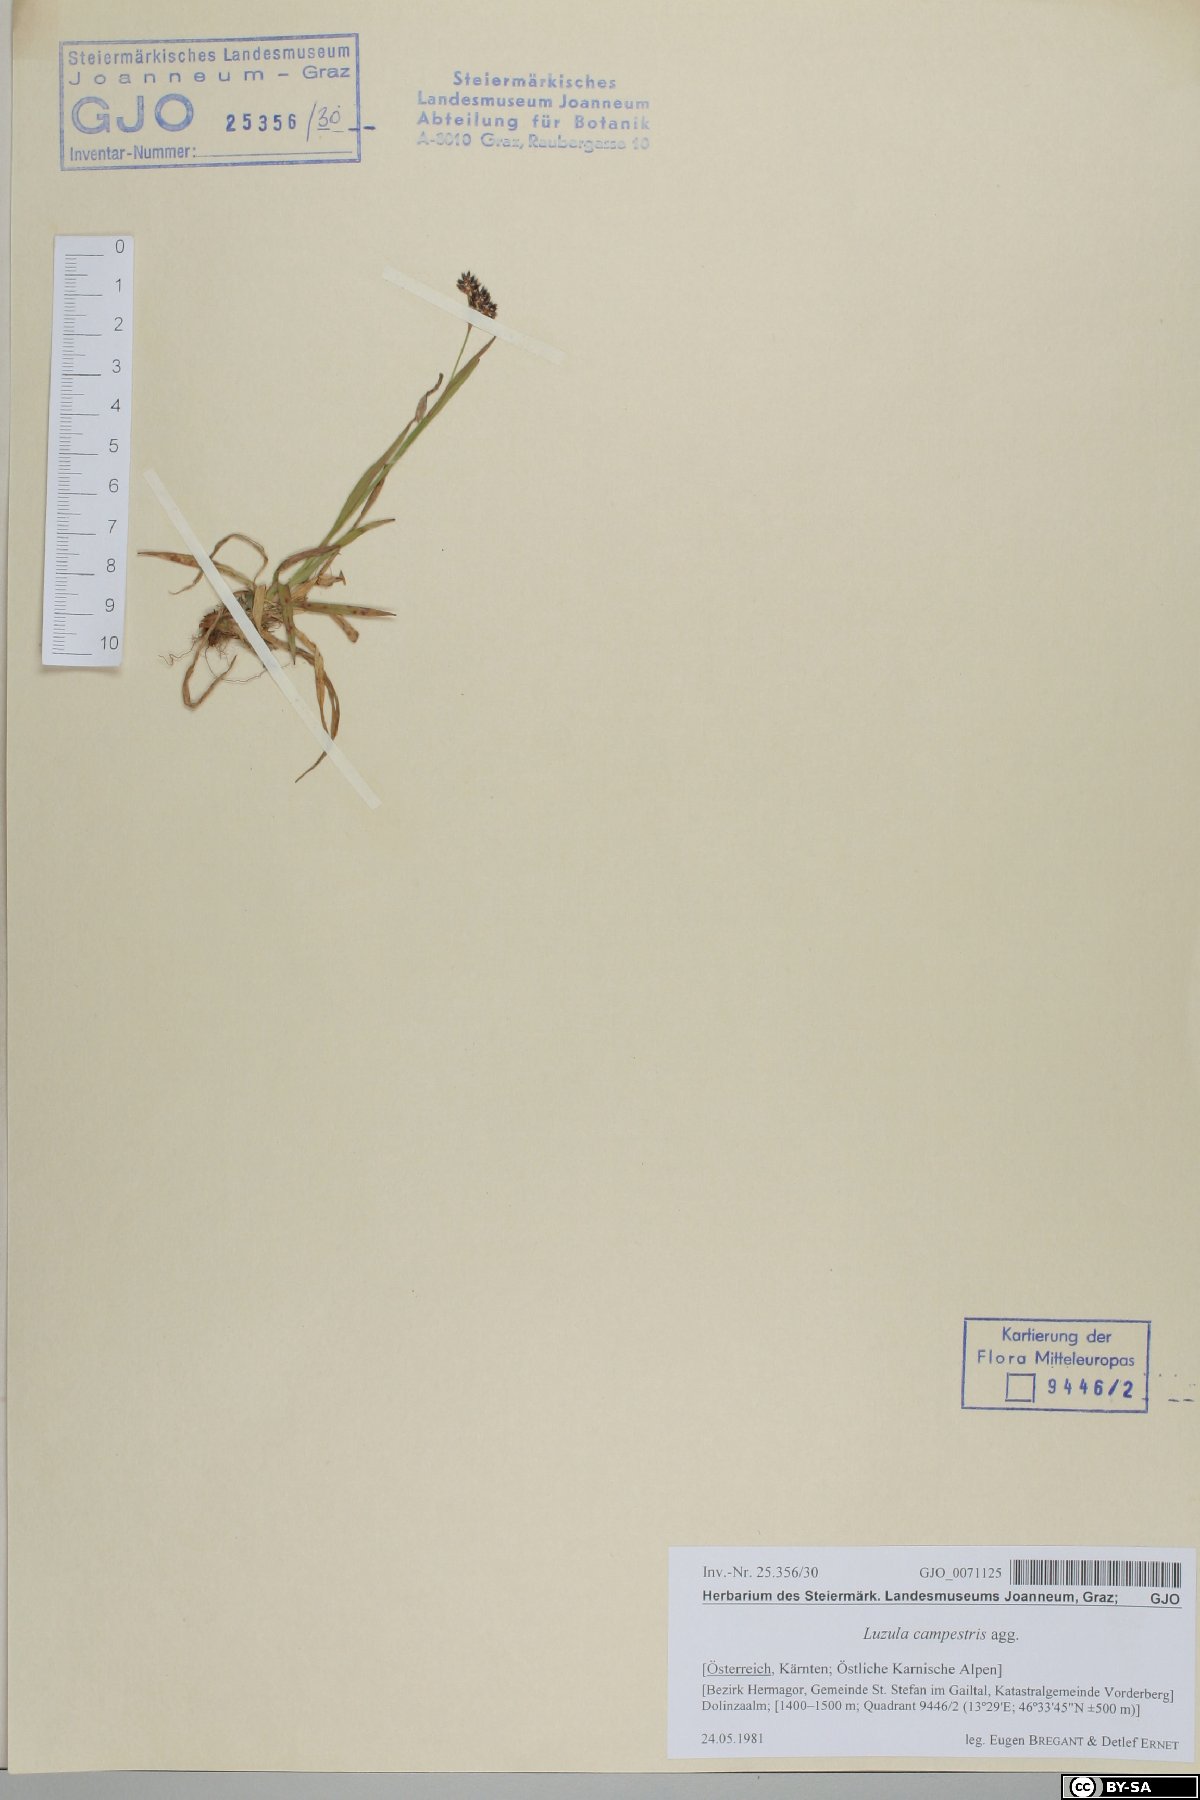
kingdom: Plantae
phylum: Tracheophyta
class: Liliopsida
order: Poales
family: Juncaceae
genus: Luzula
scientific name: Luzula campestris
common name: Field wood-rush
